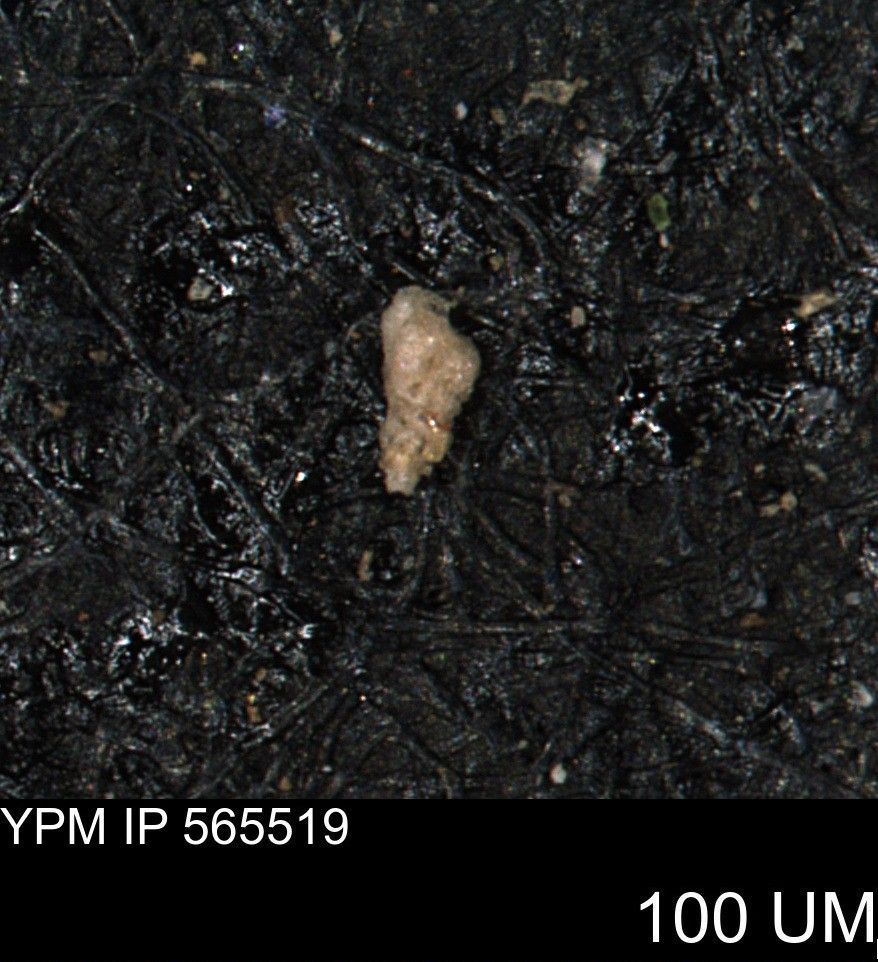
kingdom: Chromista
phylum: Foraminifera
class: Globothalamea
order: Lituolida
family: Verneuilinidae
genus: Verneuilina
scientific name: Verneuilina canadensis
